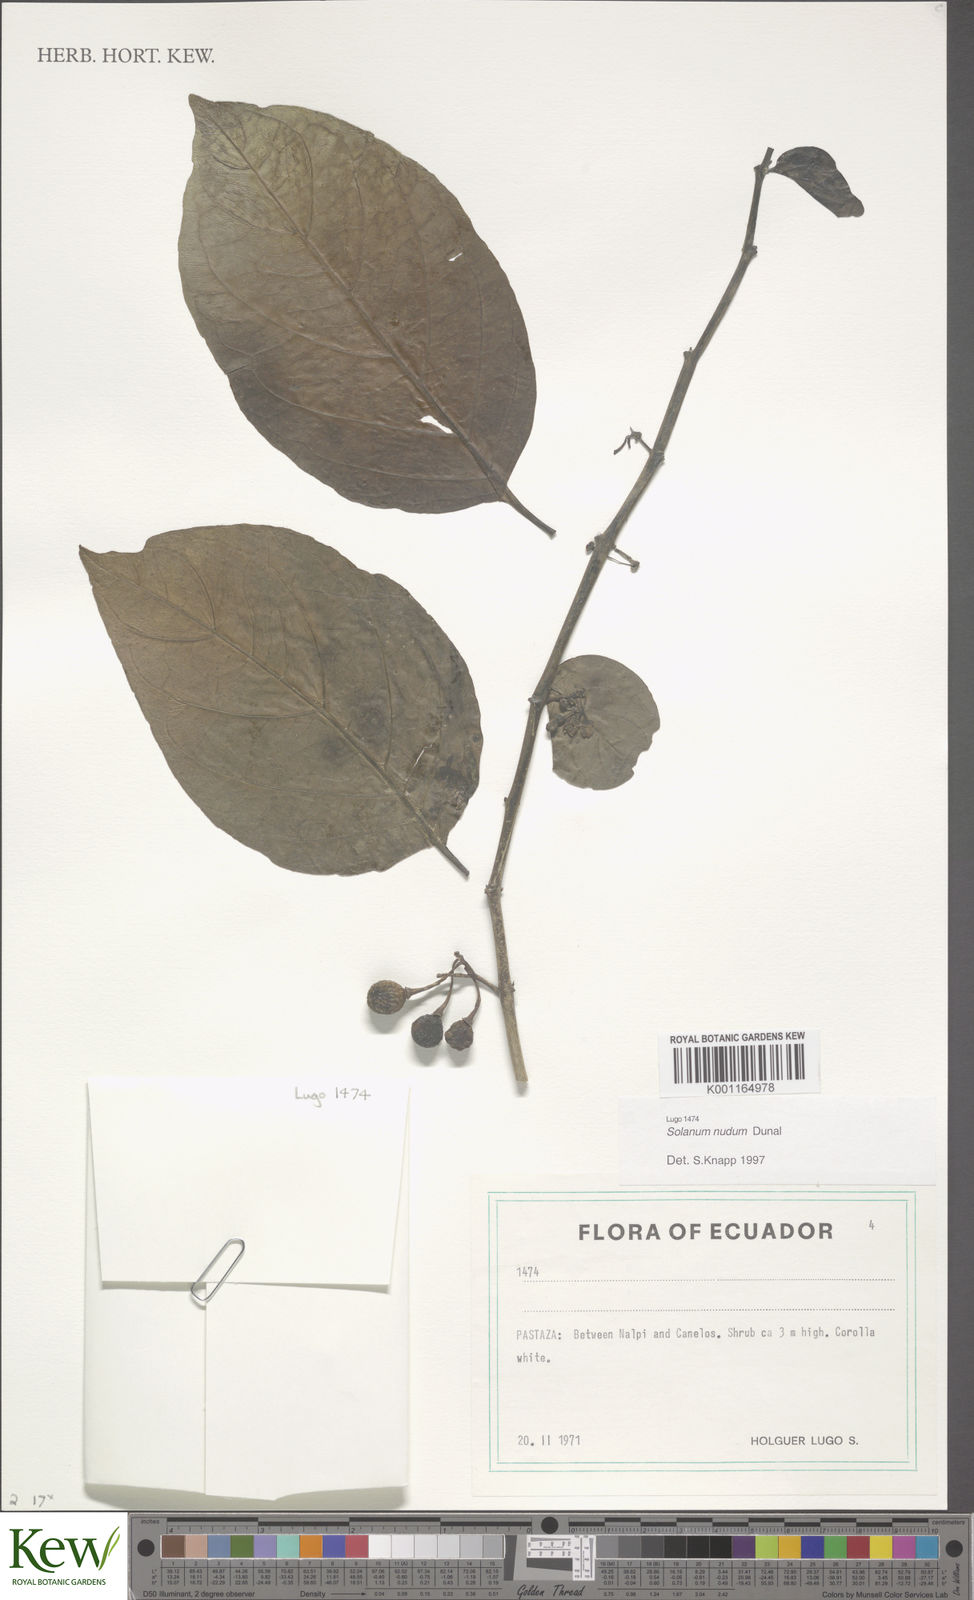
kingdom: Plantae
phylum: Tracheophyta
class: Magnoliopsida
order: Solanales
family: Solanaceae
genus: Solanum
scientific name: Solanum nudum
